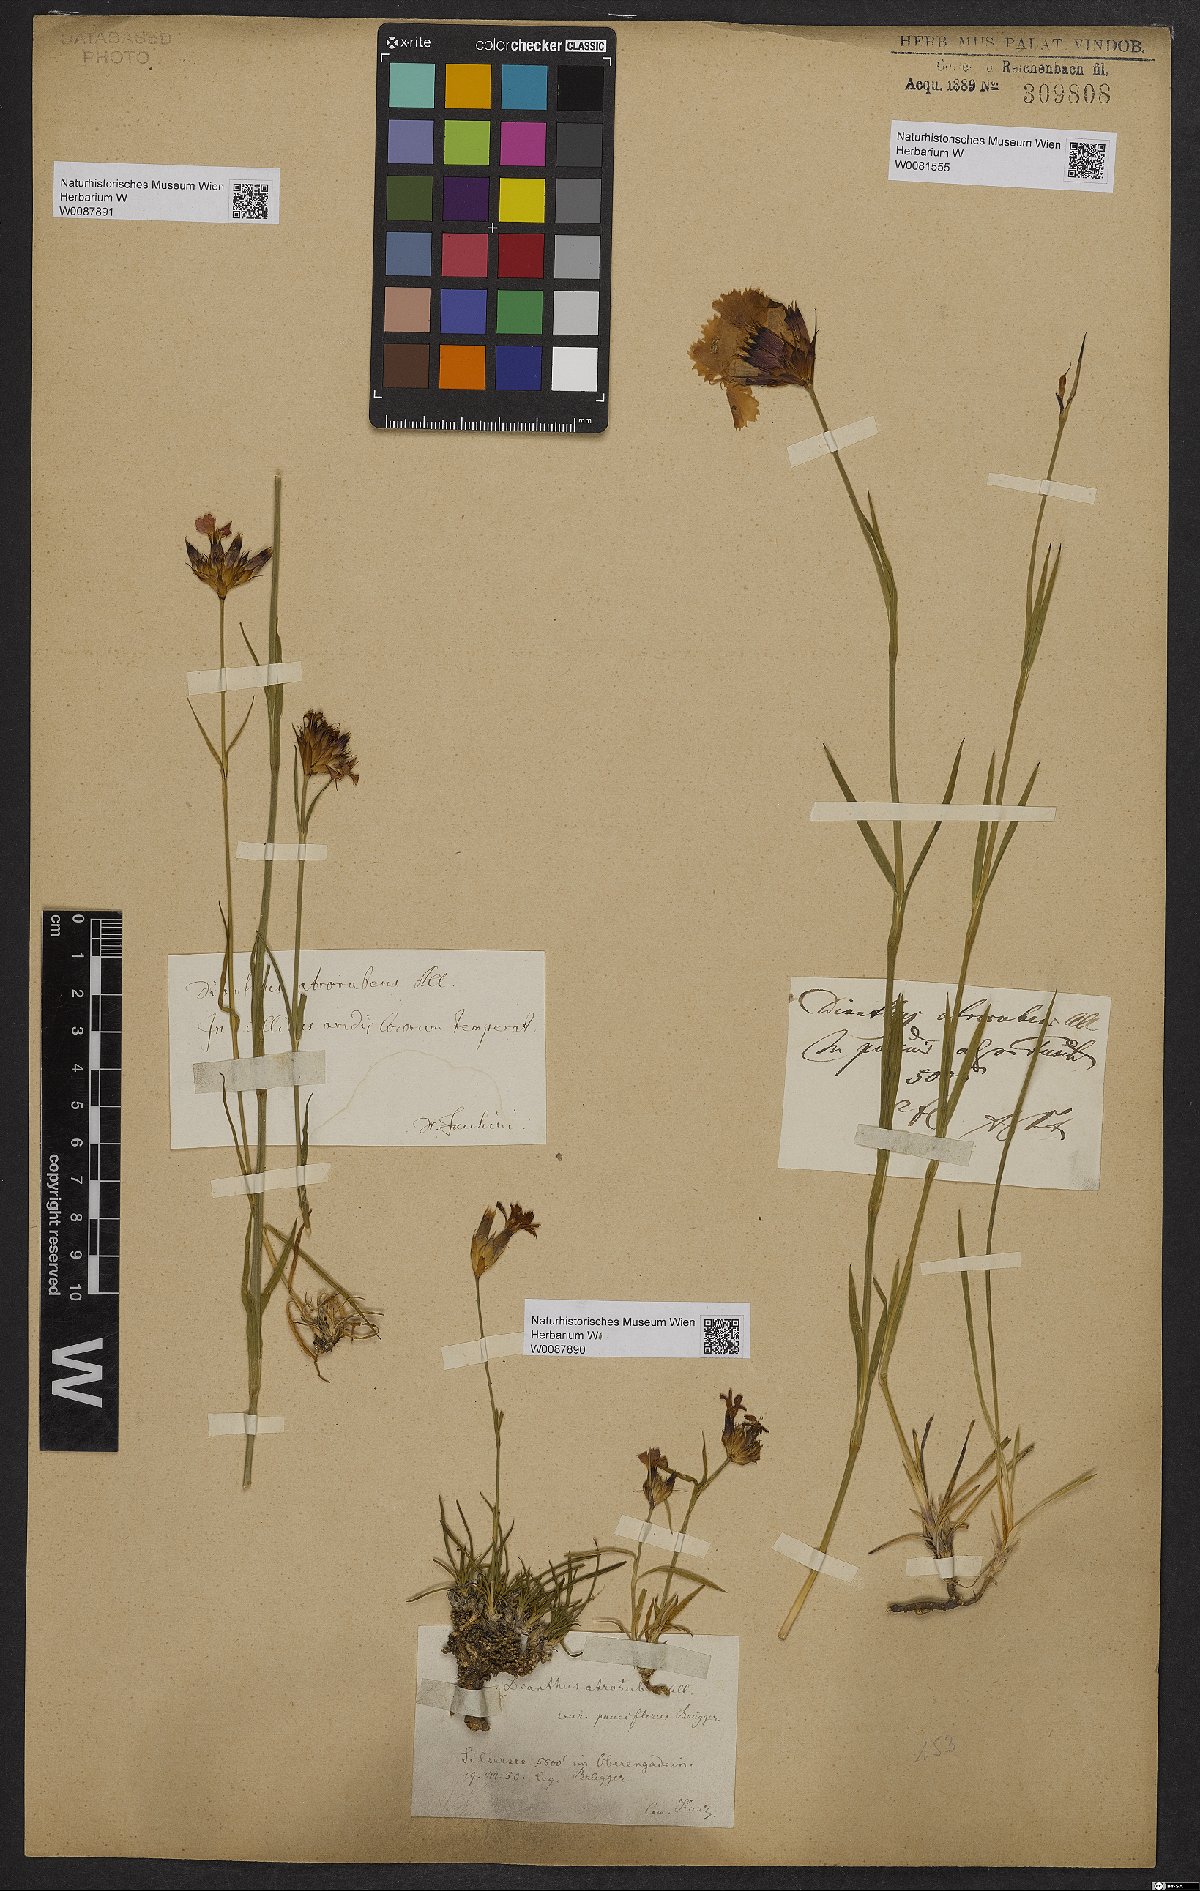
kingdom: Plantae
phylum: Tracheophyta
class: Magnoliopsida
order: Caryophyllales
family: Caryophyllaceae
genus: Dianthus
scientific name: Dianthus carthusianorum
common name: Carthusian pink
